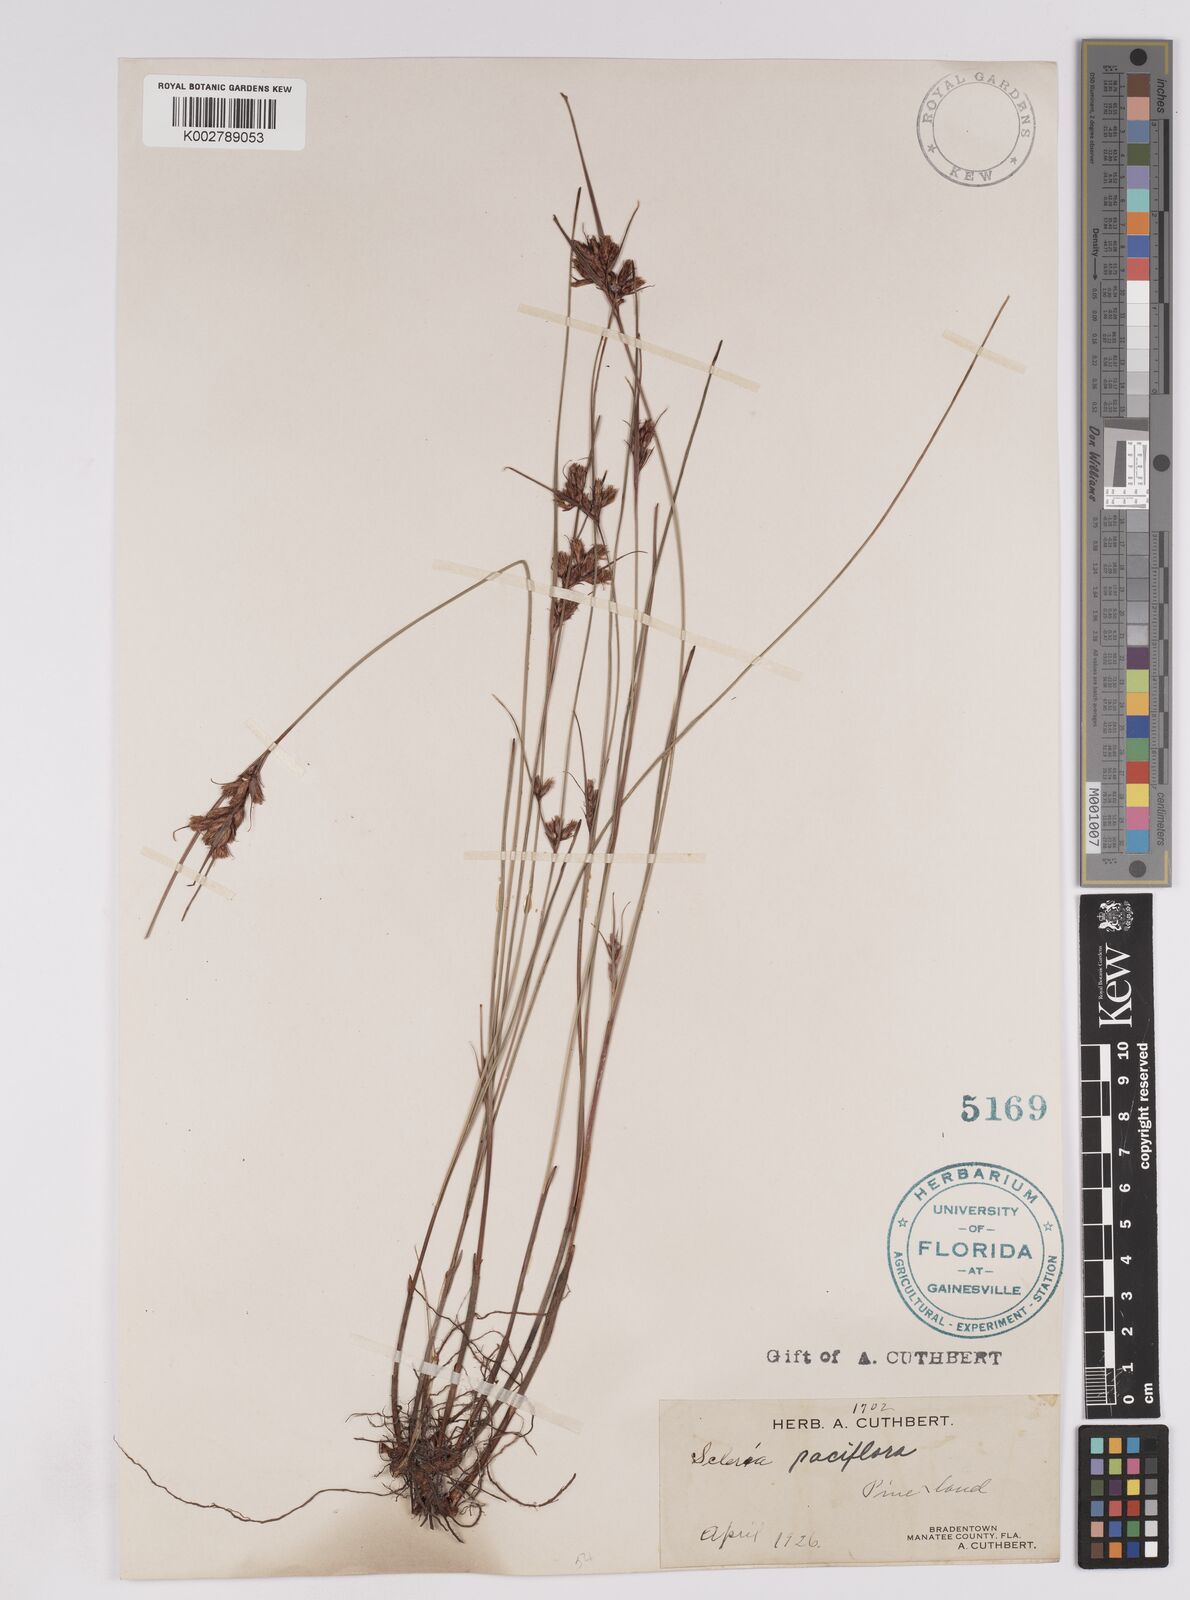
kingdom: Plantae
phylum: Tracheophyta
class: Liliopsida
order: Poales
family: Cyperaceae
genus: Scleria
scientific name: Scleria pauciflora
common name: Few-flowered nutrush
